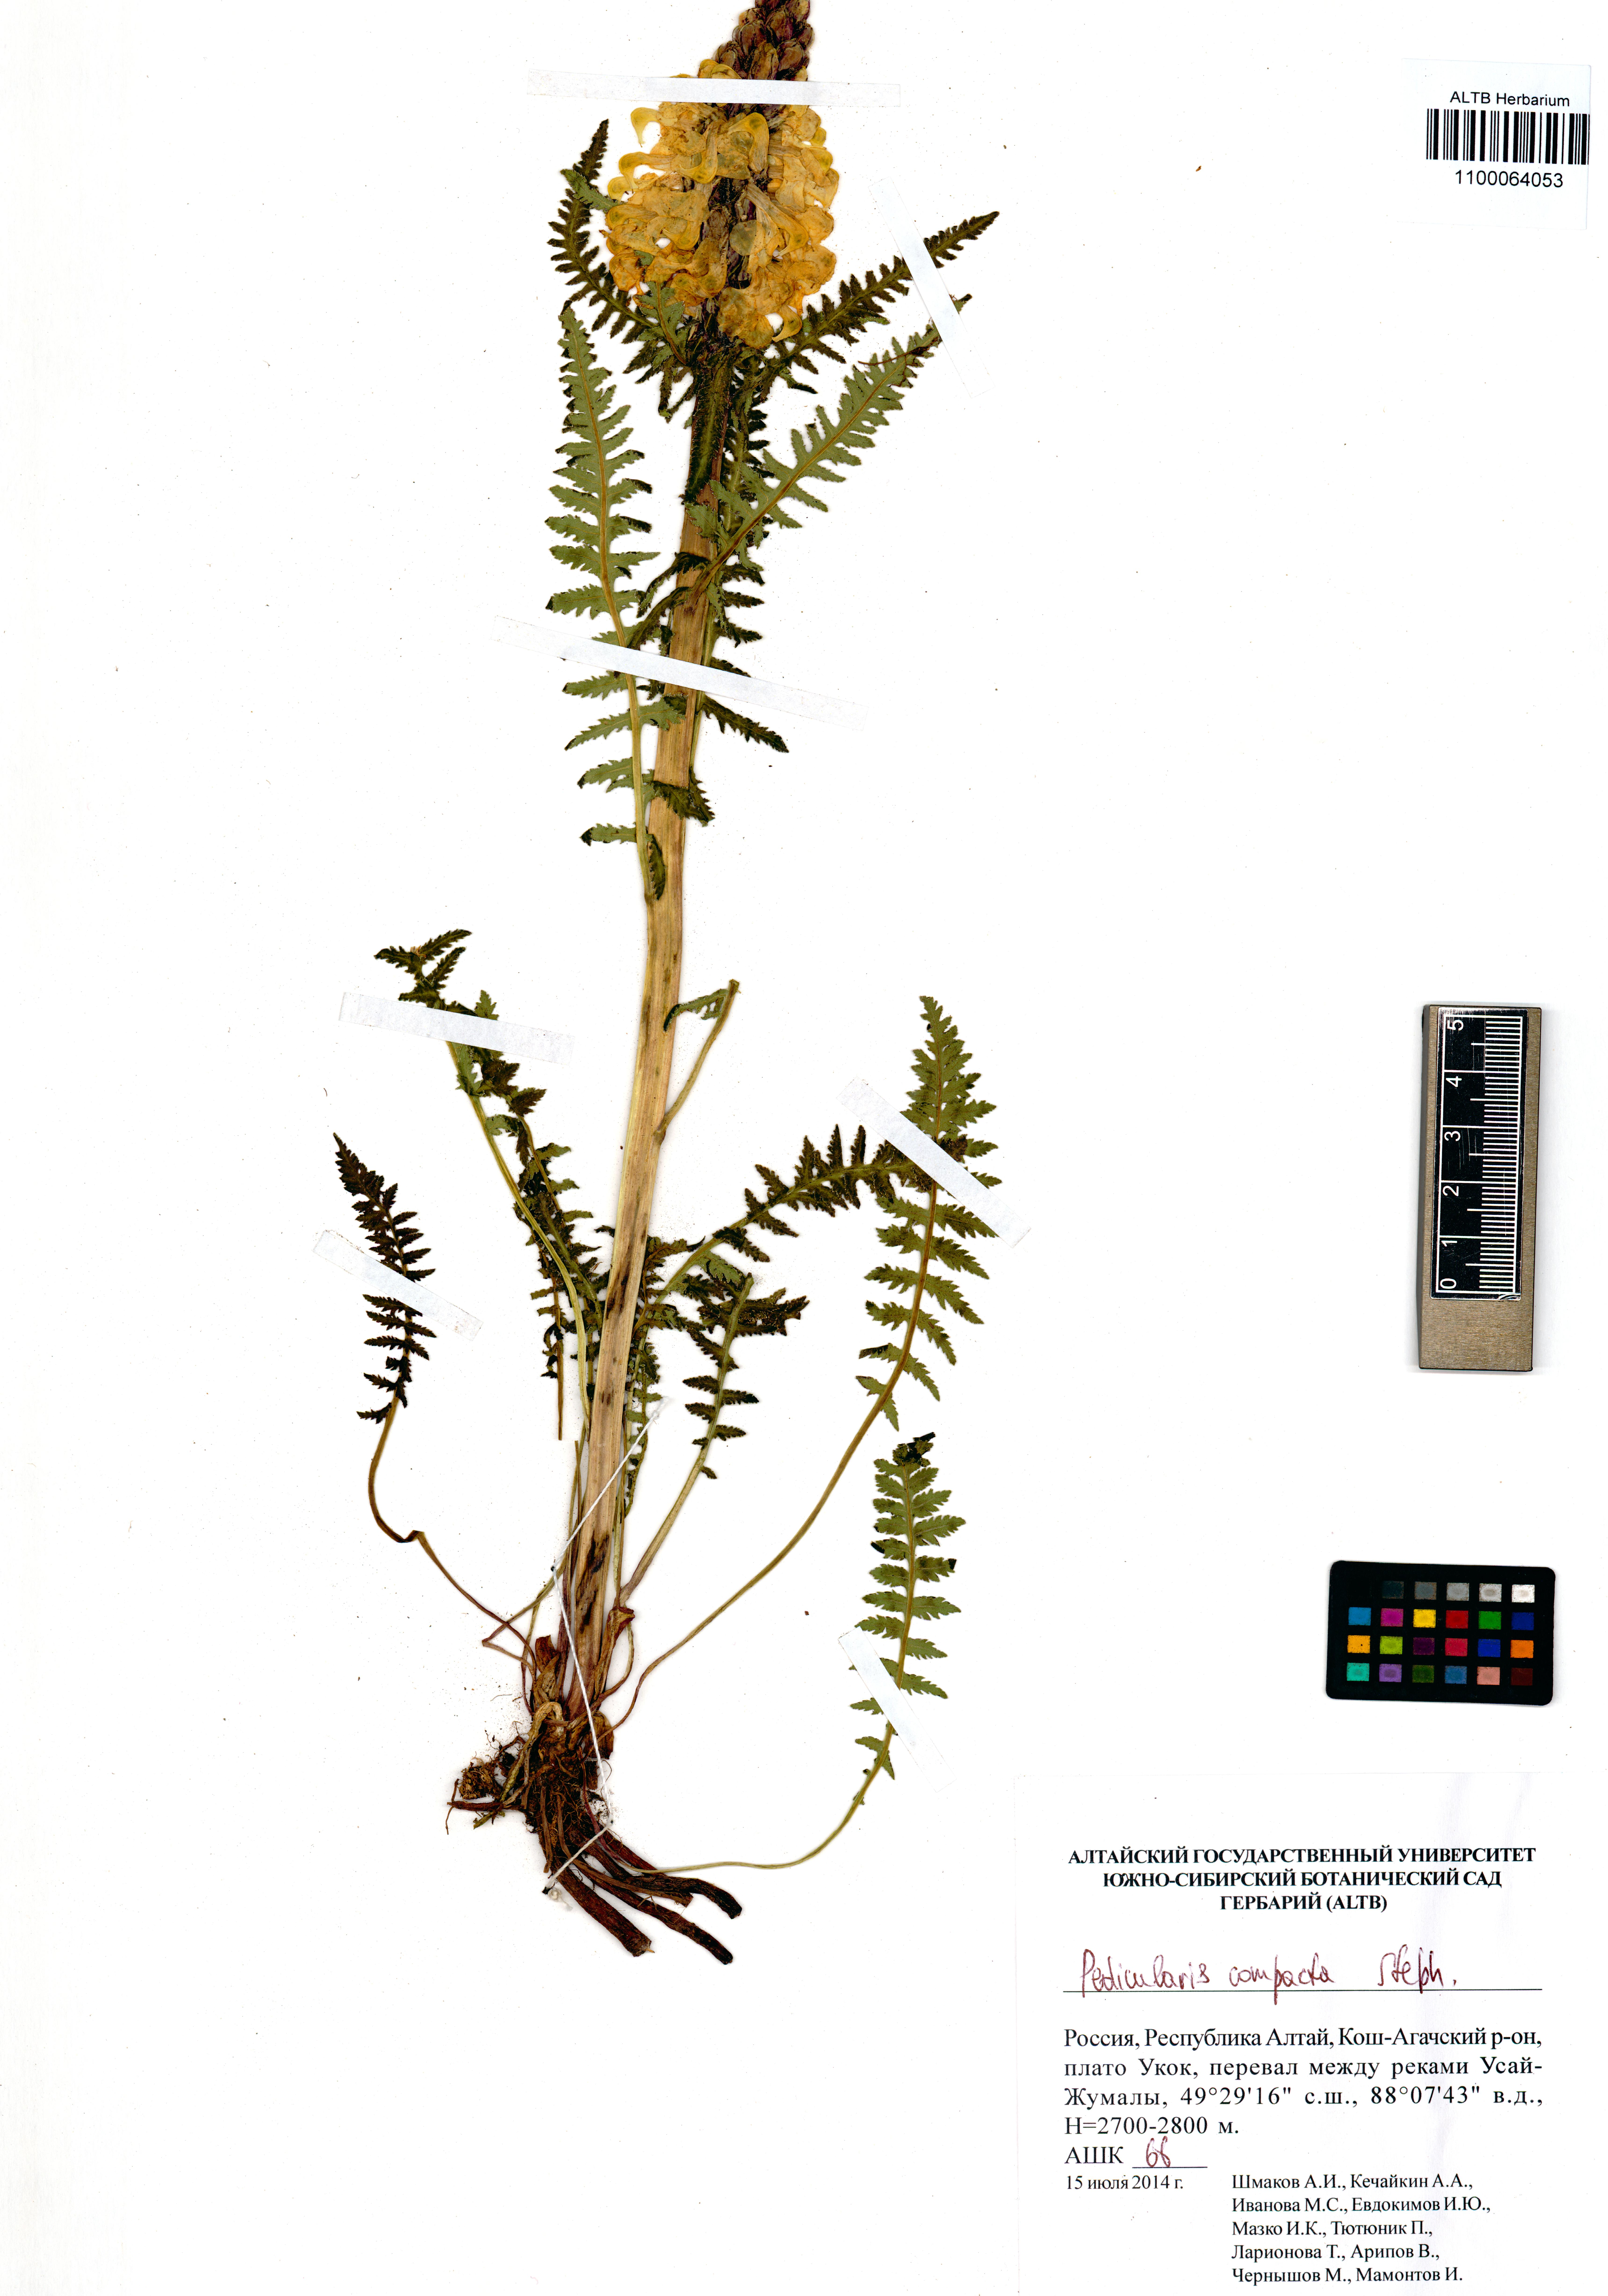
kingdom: Plantae
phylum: Tracheophyta
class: Magnoliopsida
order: Lamiales
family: Orobanchaceae
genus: Pedicularis
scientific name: Pedicularis compacta
